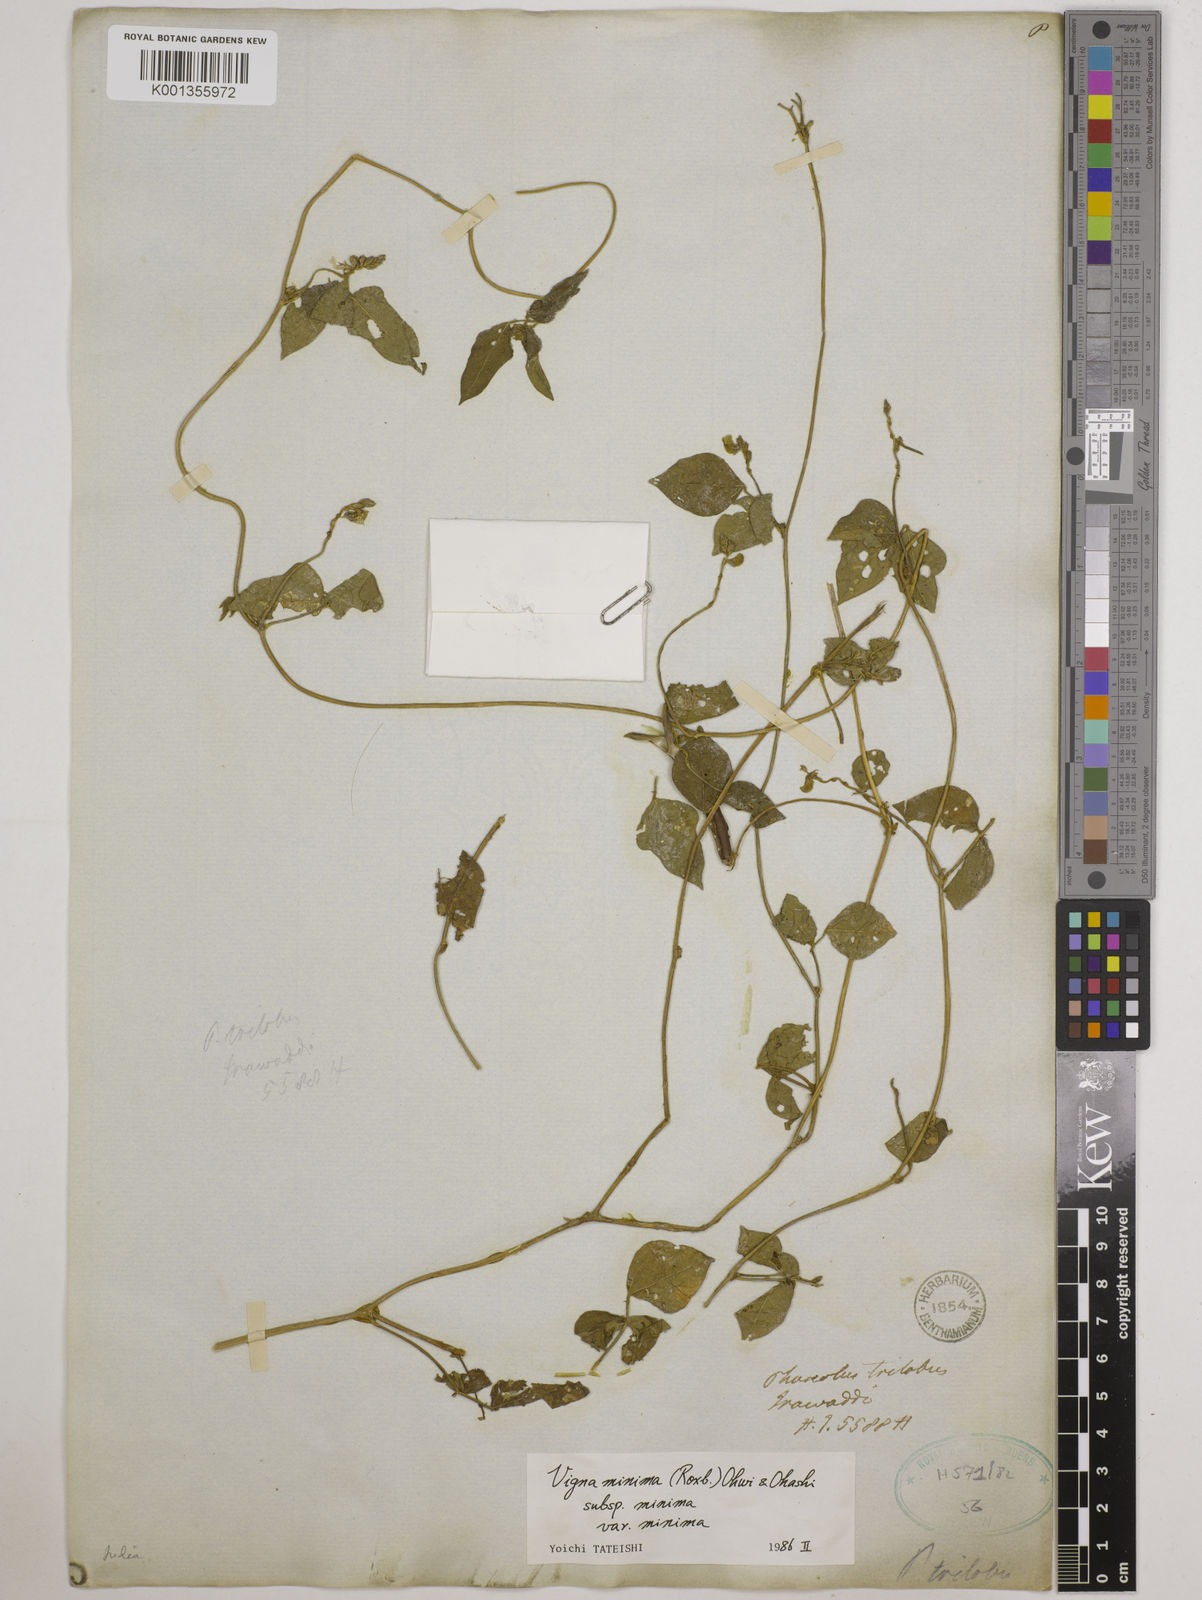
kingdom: Plantae
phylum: Tracheophyta
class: Magnoliopsida
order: Fabales
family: Fabaceae
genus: Vigna
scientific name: Vigna
